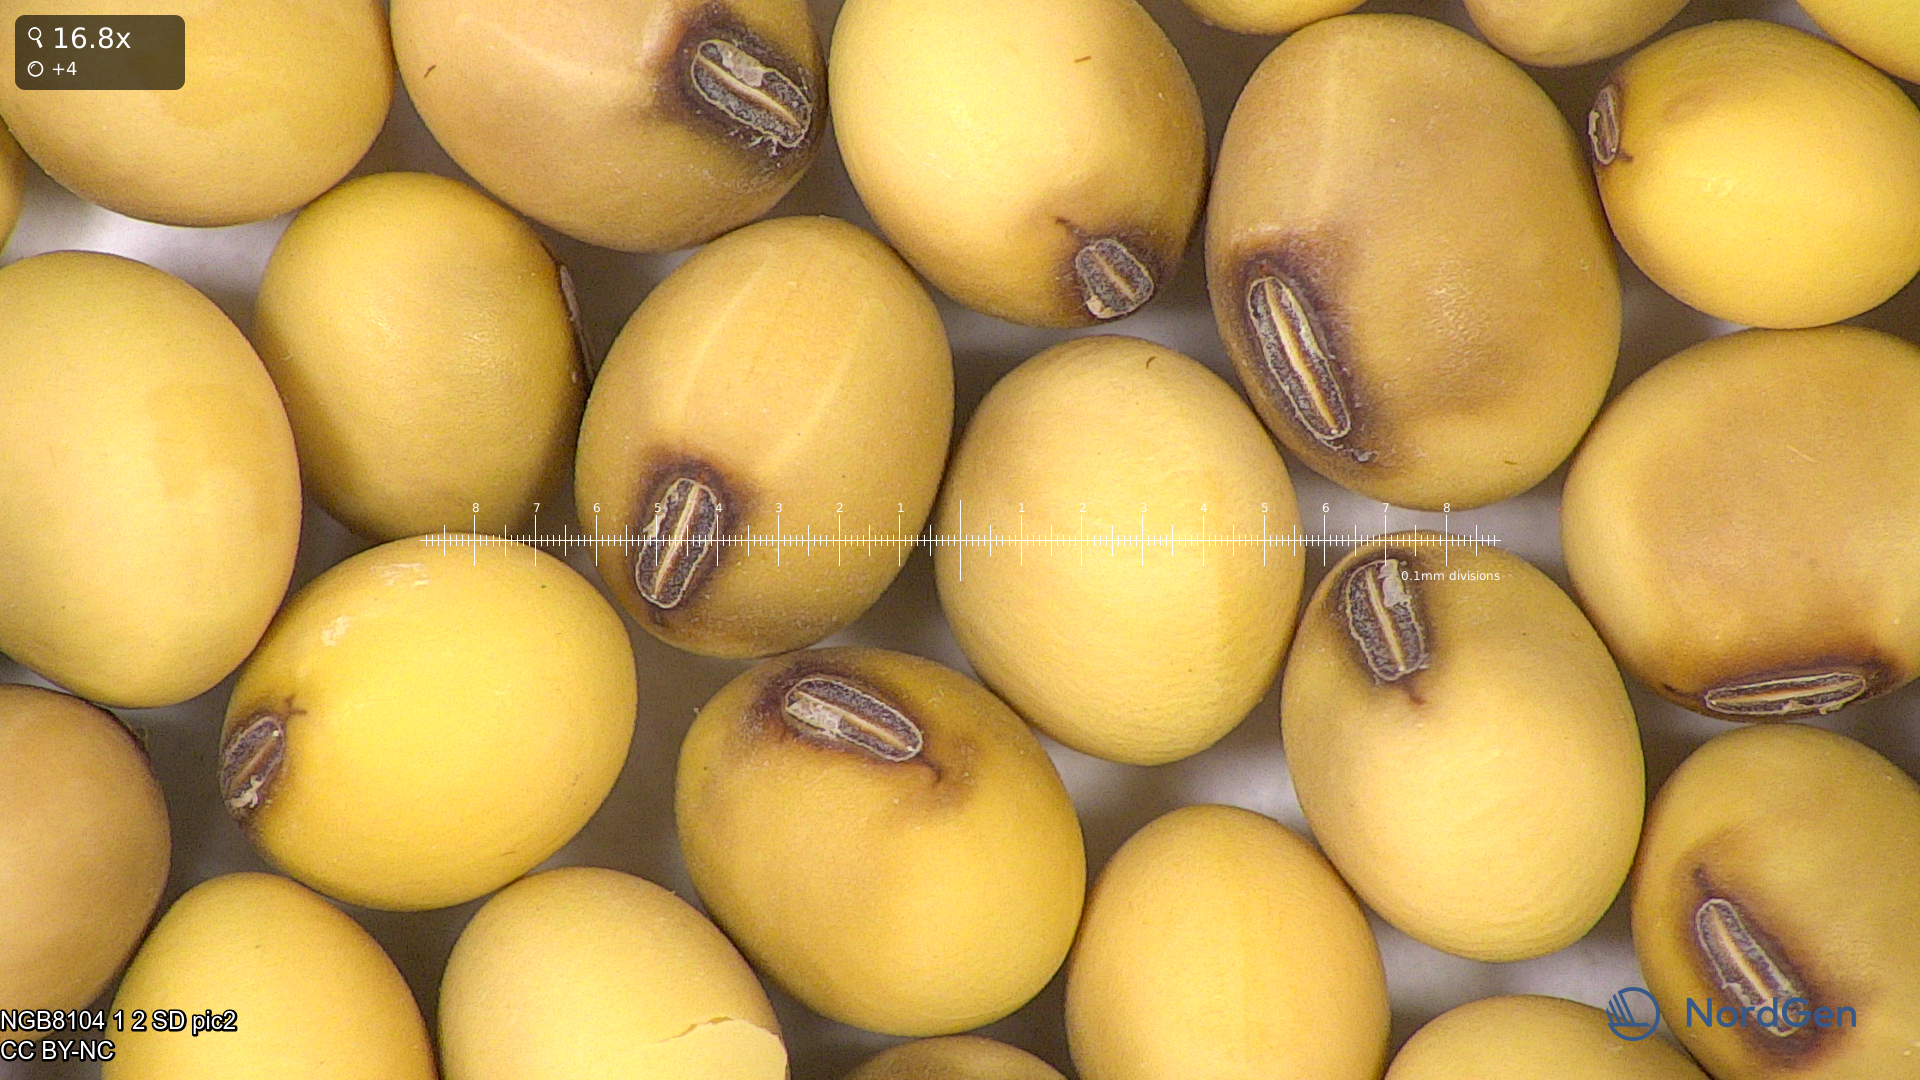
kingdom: Plantae
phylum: Tracheophyta
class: Magnoliopsida
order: Fabales
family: Fabaceae
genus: Glycine
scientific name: Glycine max
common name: Soya-bean
